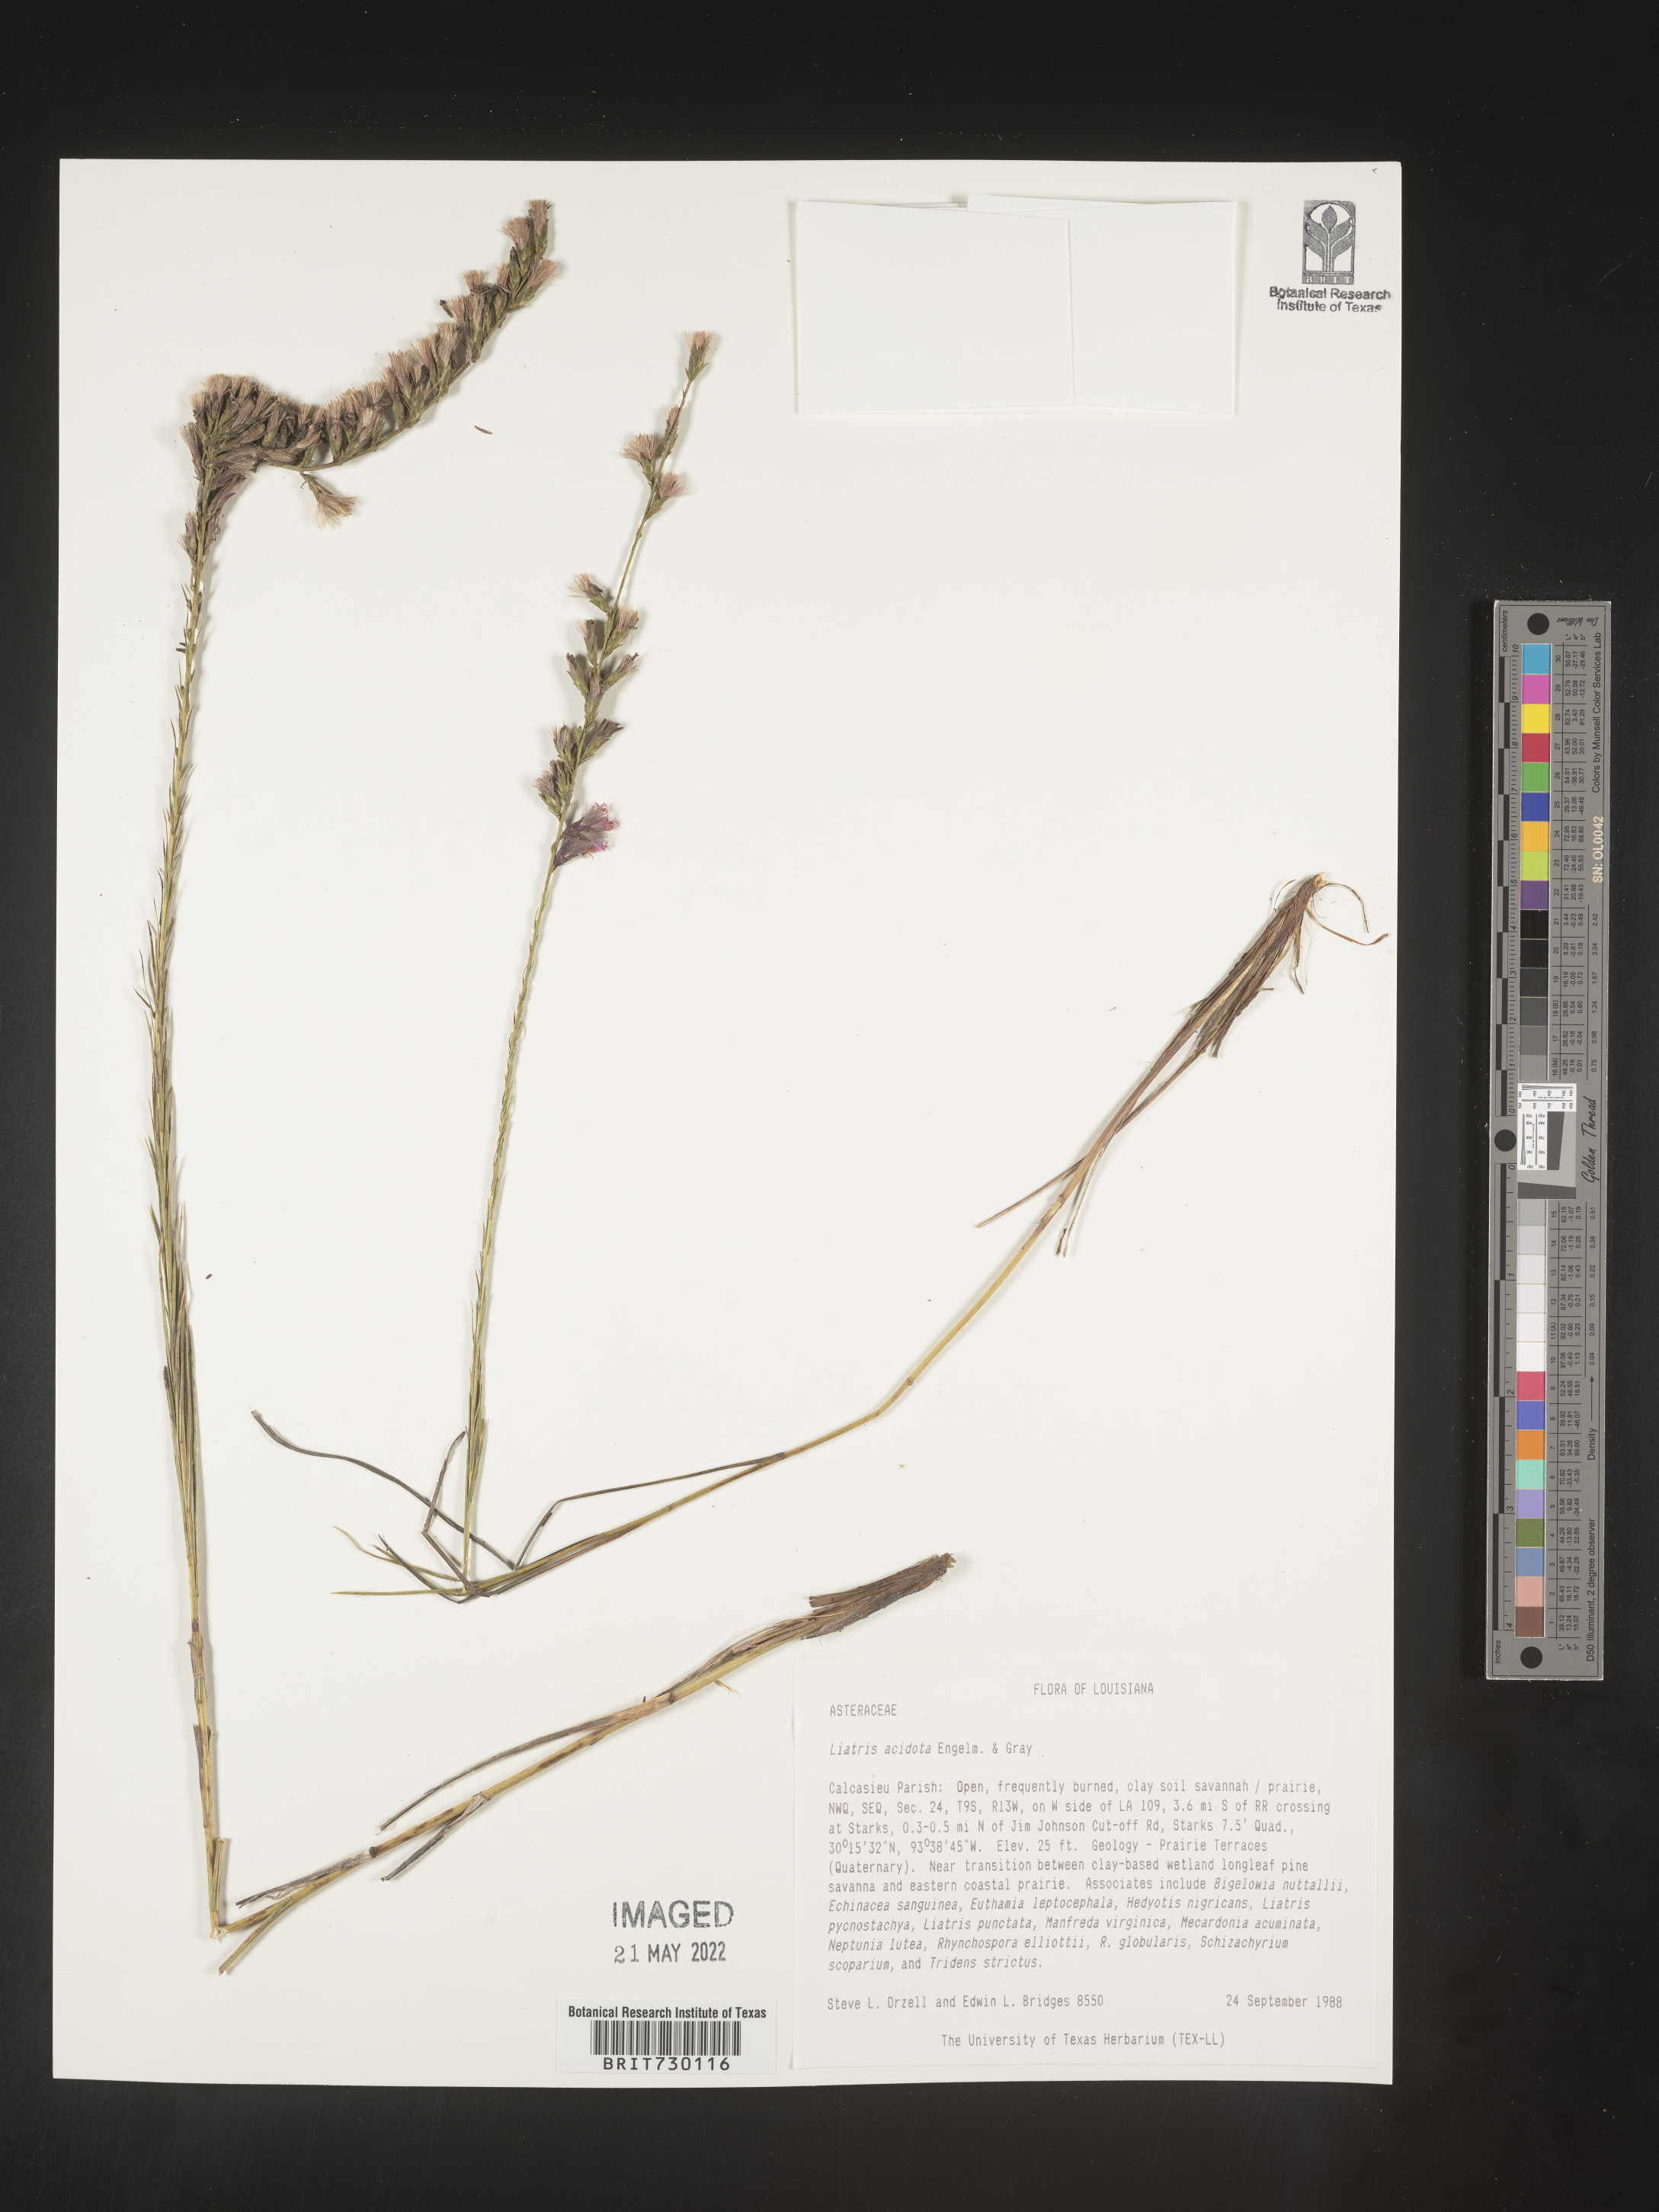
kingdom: Plantae
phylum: Tracheophyta
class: Magnoliopsida
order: Asterales
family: Asteraceae
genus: Liatris
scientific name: Liatris acidota
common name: Gulf coast gayfeather
